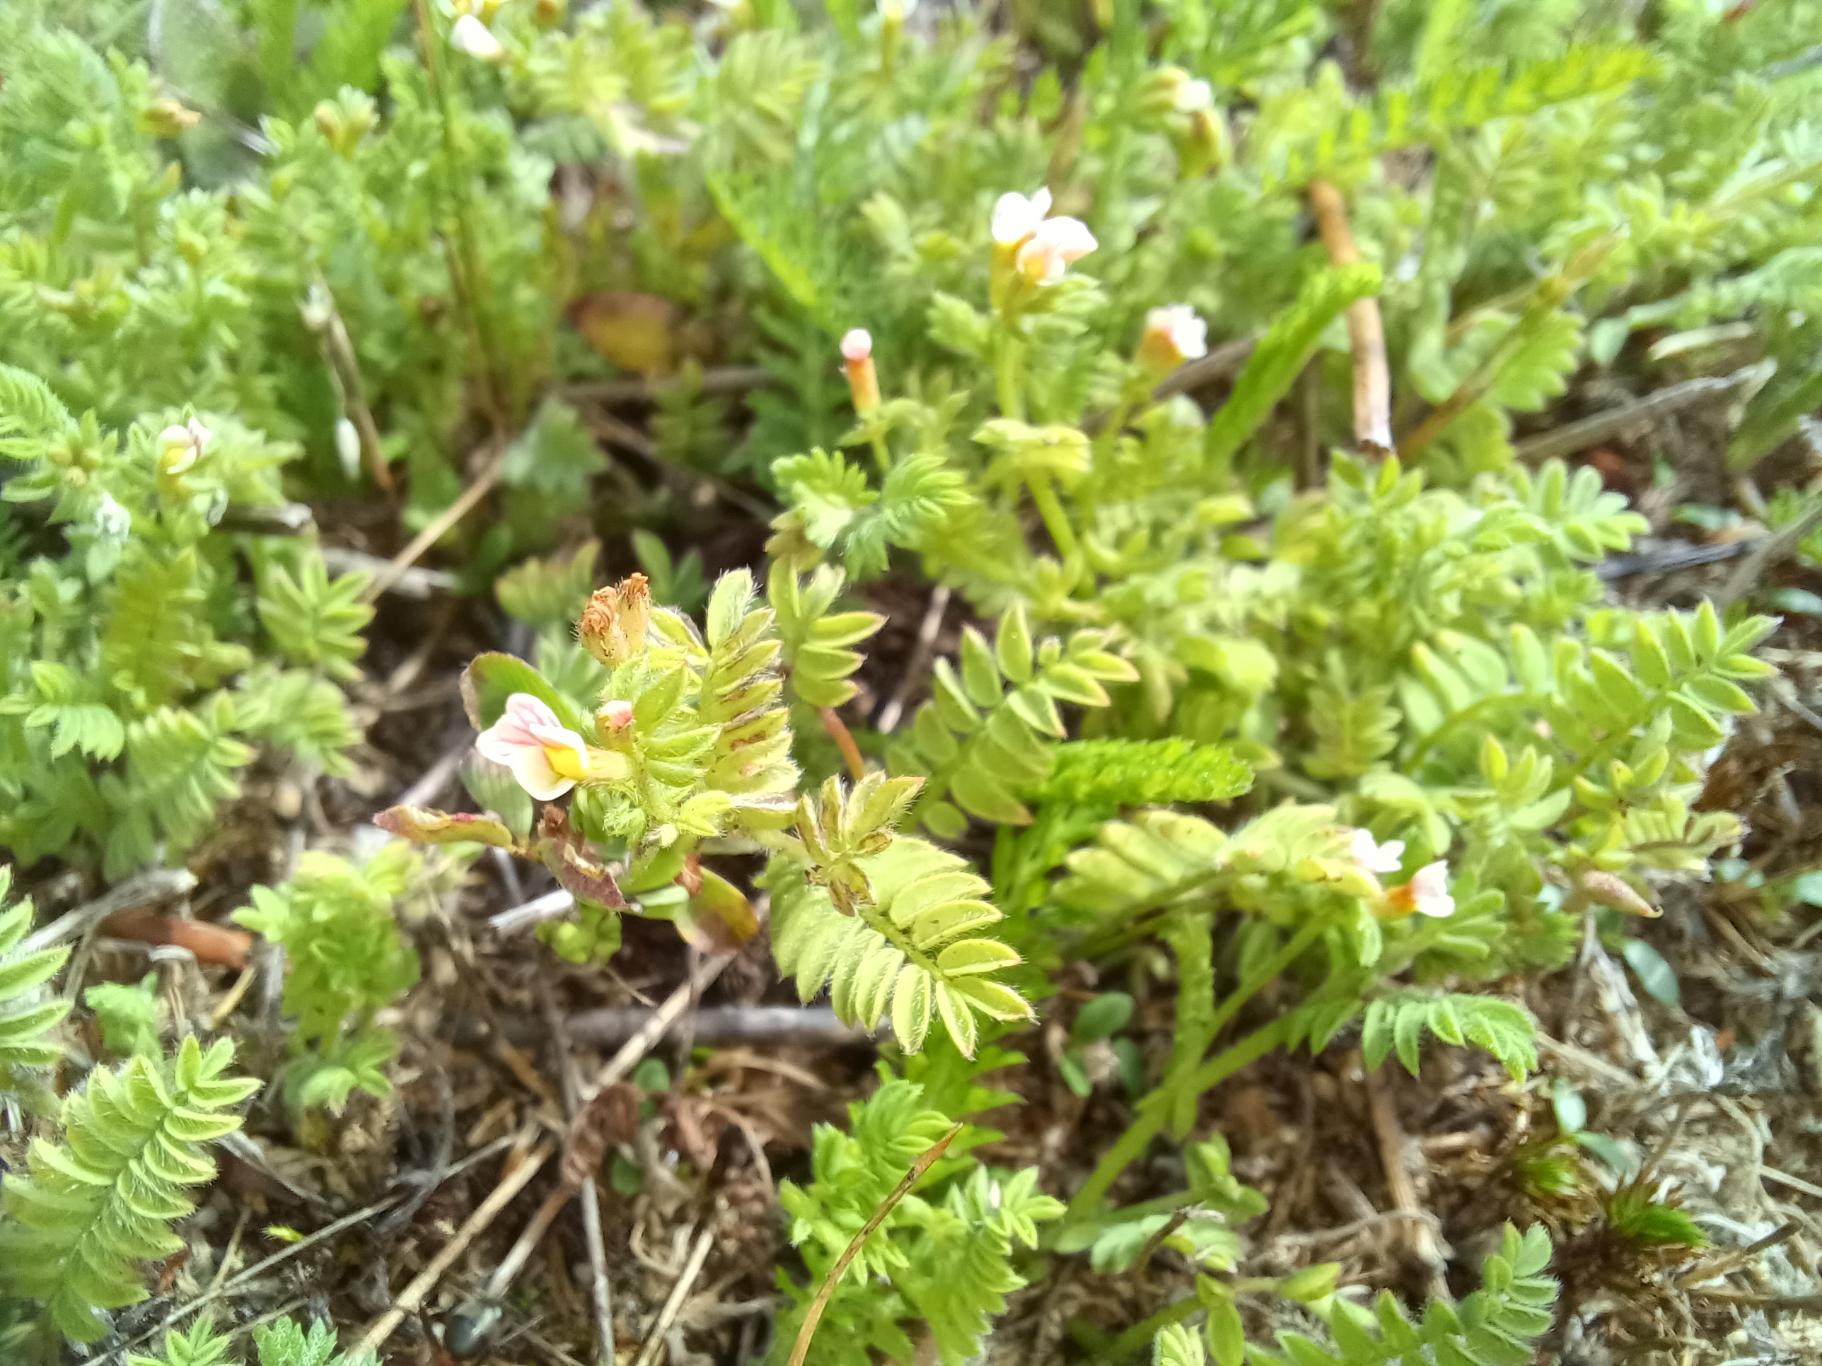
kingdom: Plantae
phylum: Tracheophyta
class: Magnoliopsida
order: Fabales
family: Fabaceae
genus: Ornithopus
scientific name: Ornithopus perpusillus
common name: Liden fugleklo
